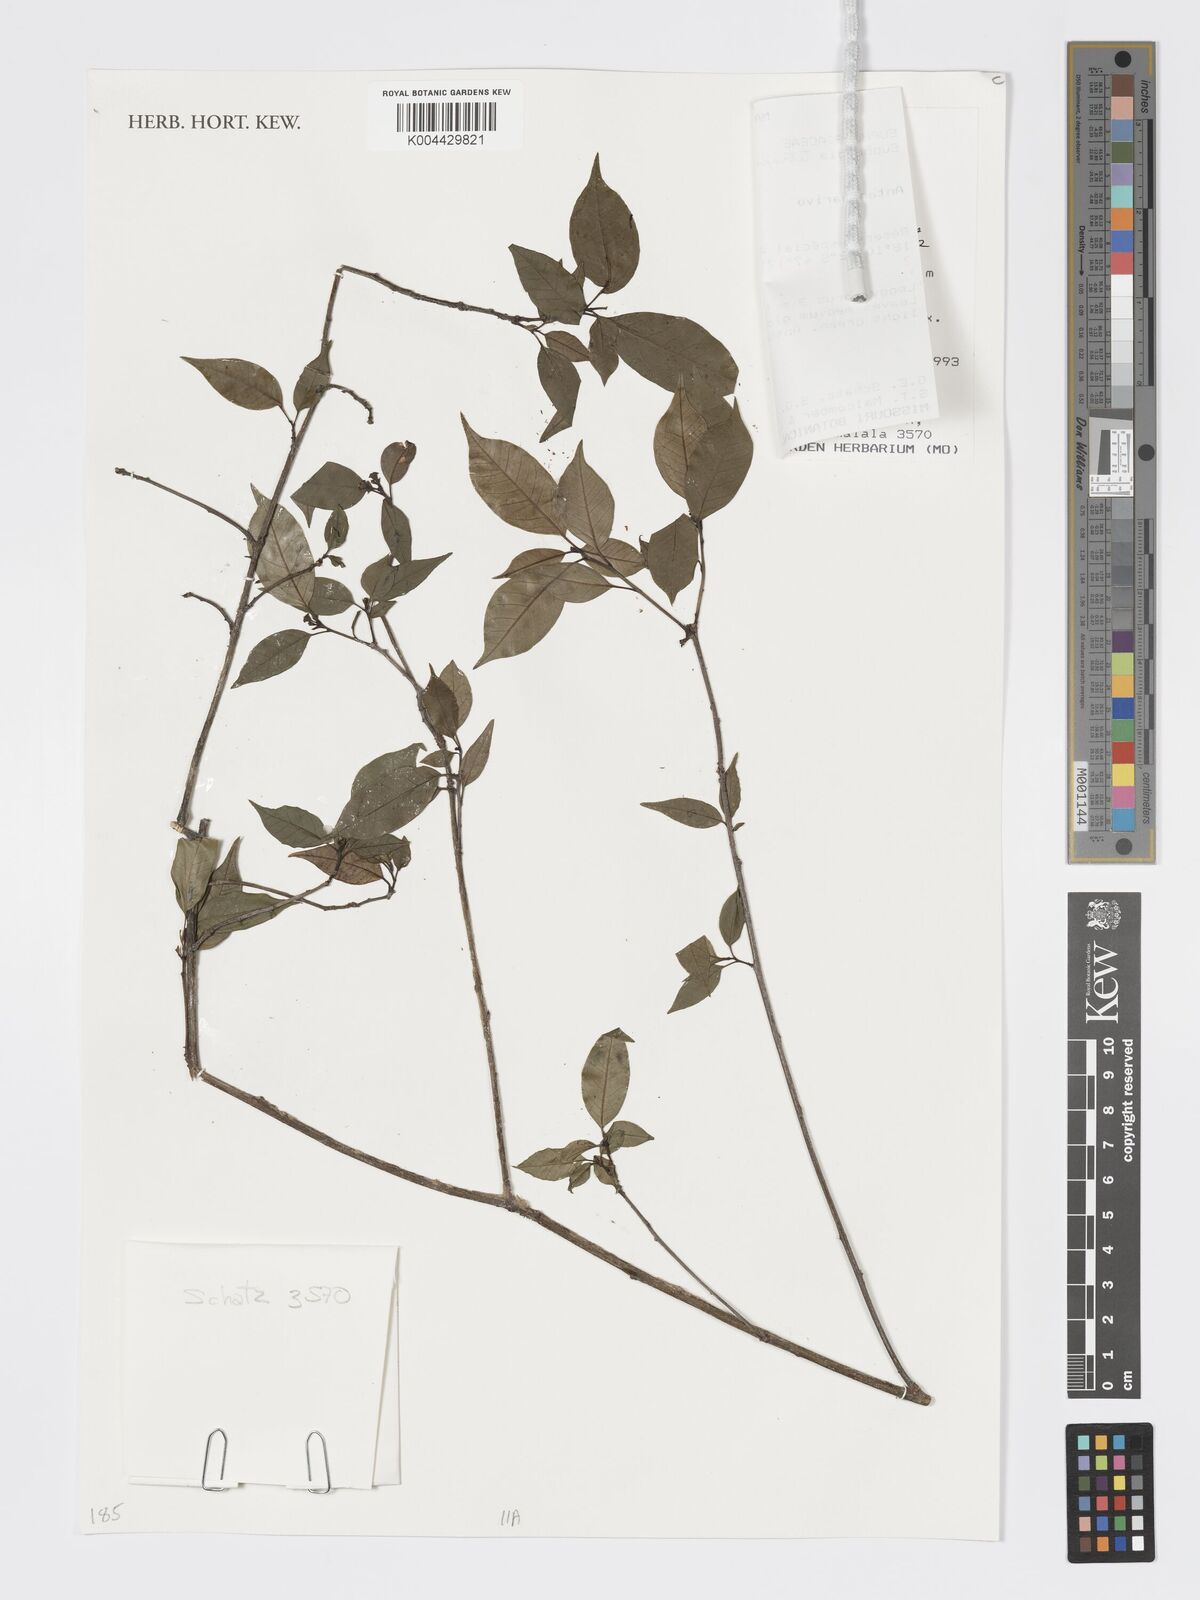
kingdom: Plantae
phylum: Tracheophyta
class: Magnoliopsida
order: Malpighiales
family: Euphorbiaceae
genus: Euphorbia
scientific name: Euphorbia tetraptera
